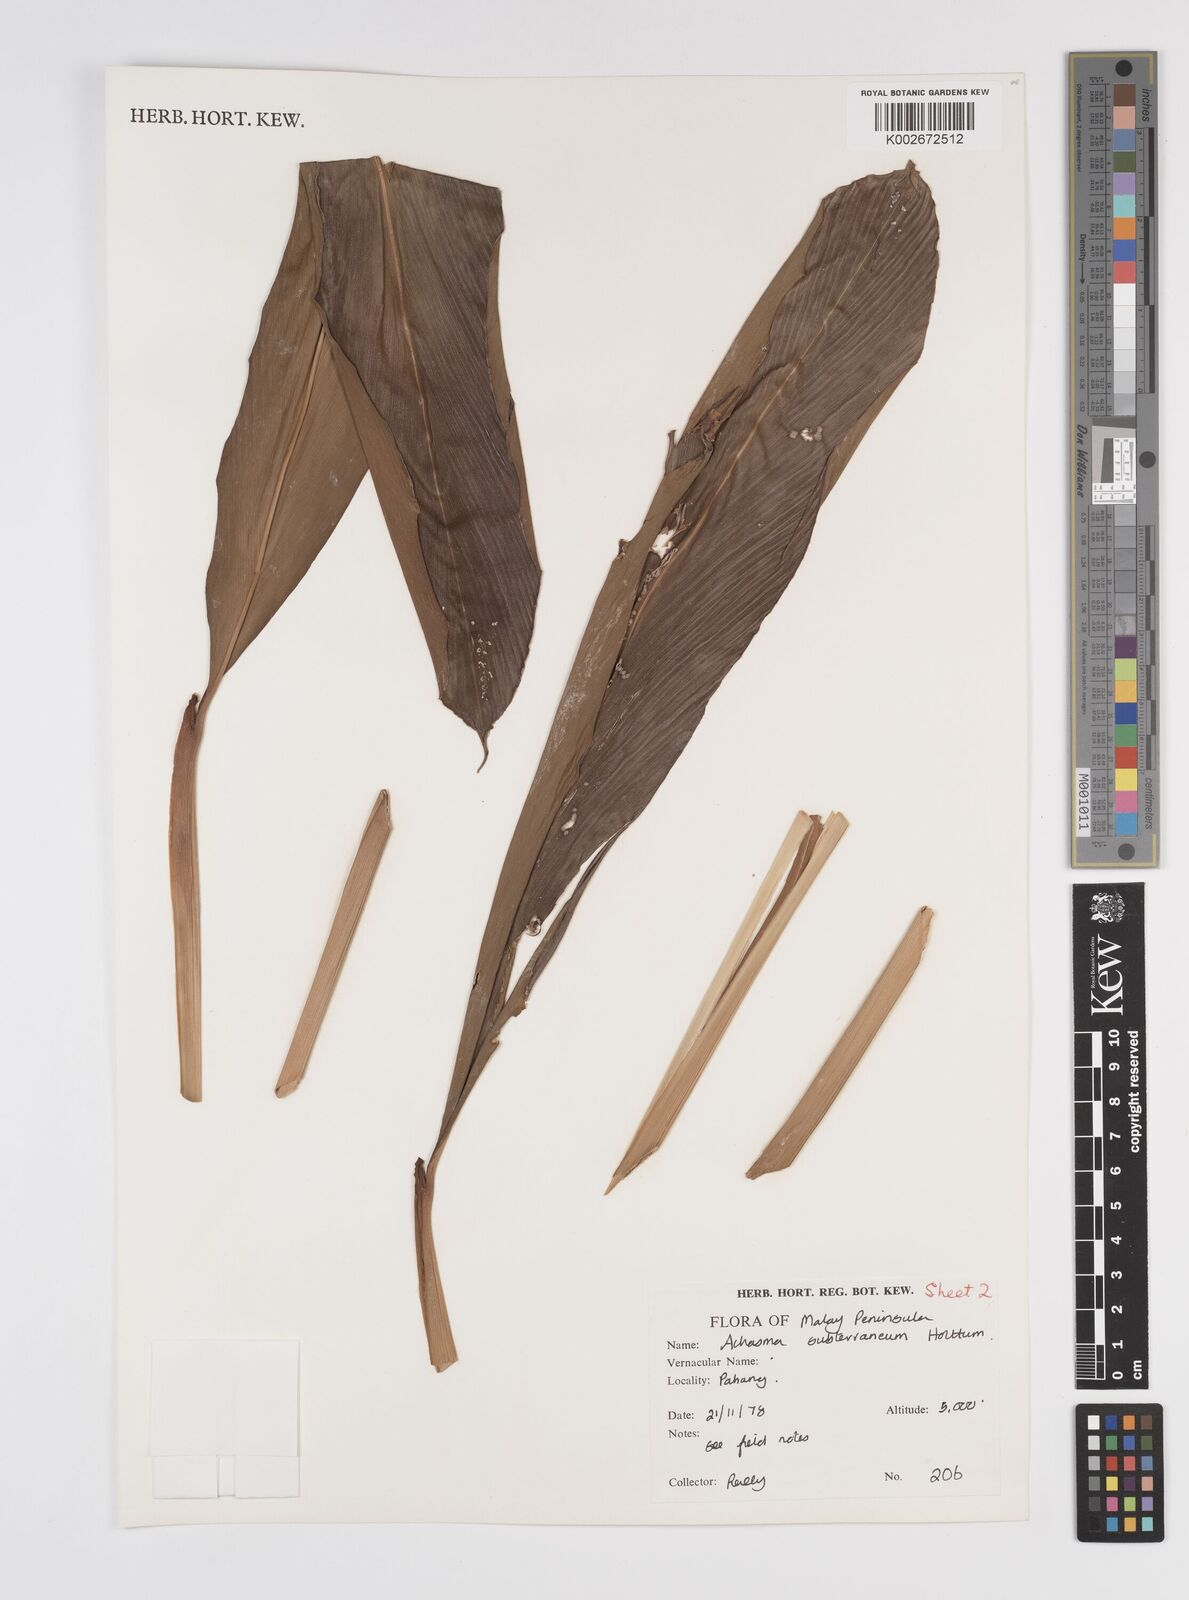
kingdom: Plantae
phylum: Tracheophyta
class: Liliopsida
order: Zingiberales
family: Zingiberaceae
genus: Etlingera
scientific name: Etlingera subterranea
